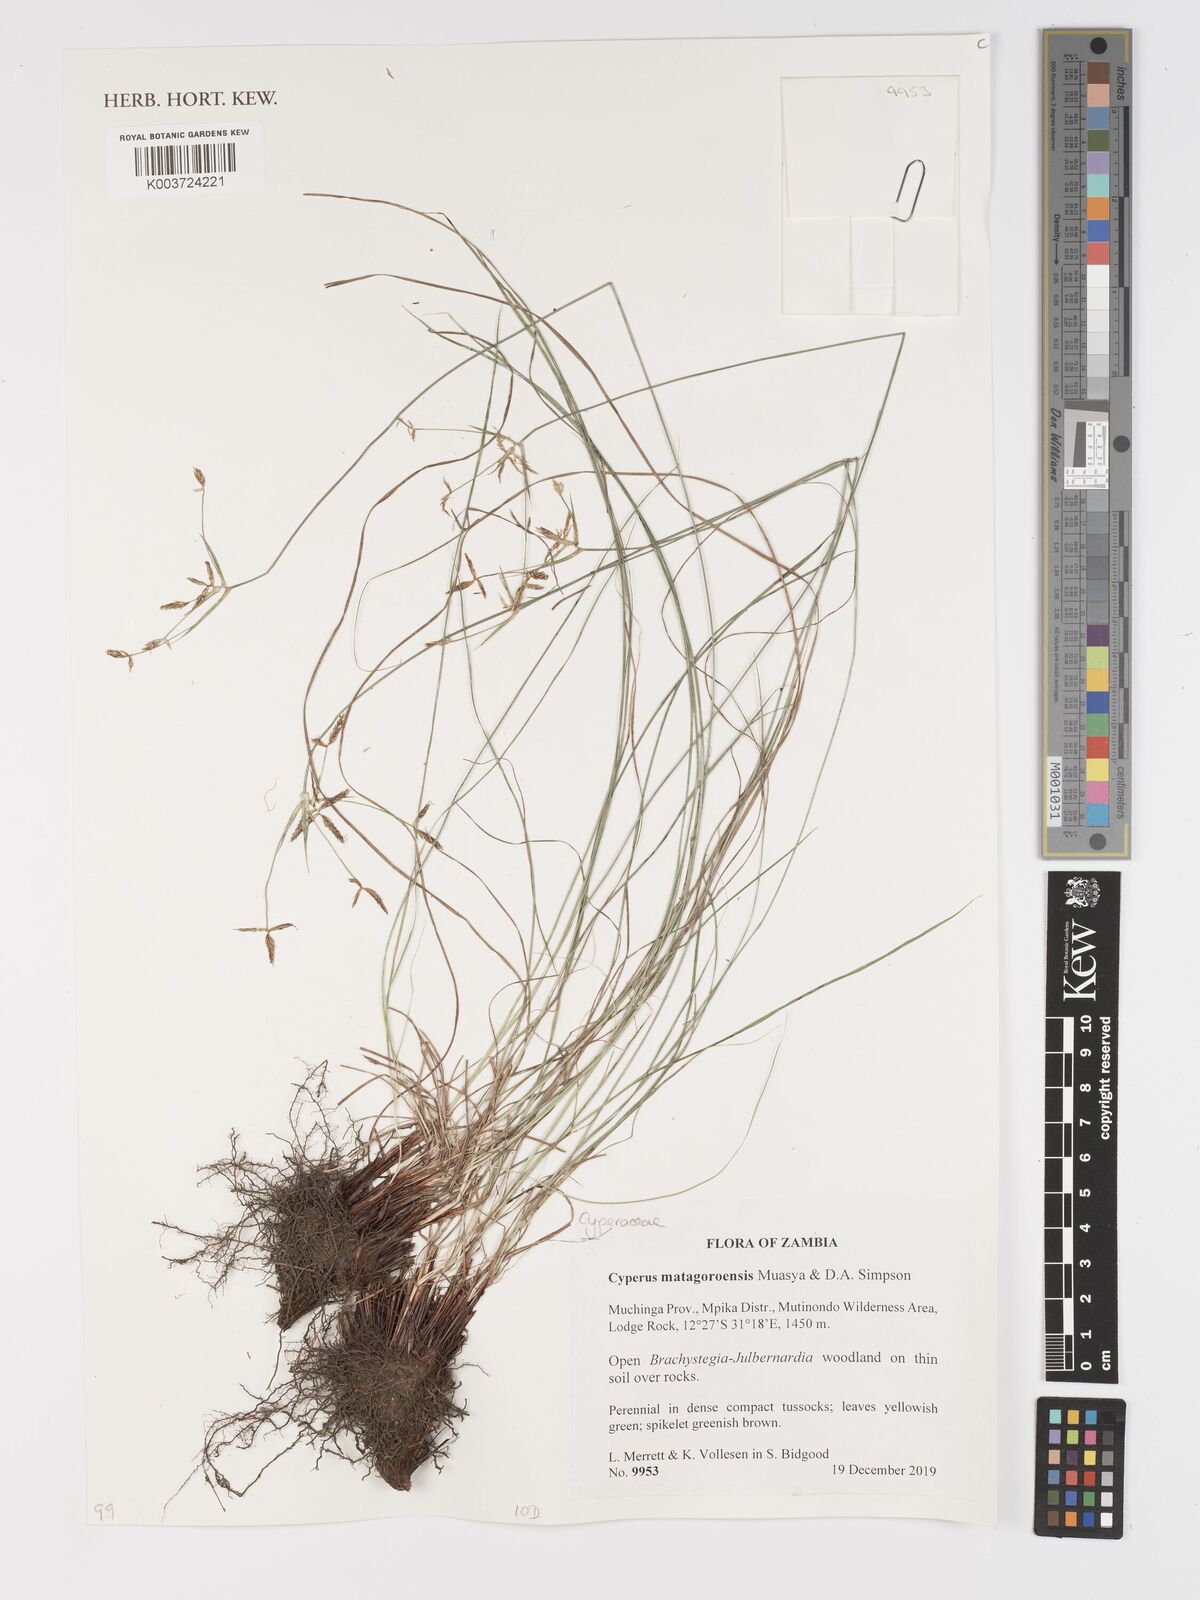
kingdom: Plantae
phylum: Tracheophyta
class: Liliopsida
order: Poales
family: Cyperaceae
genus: Cyperus
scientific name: Cyperus matagoroensis
